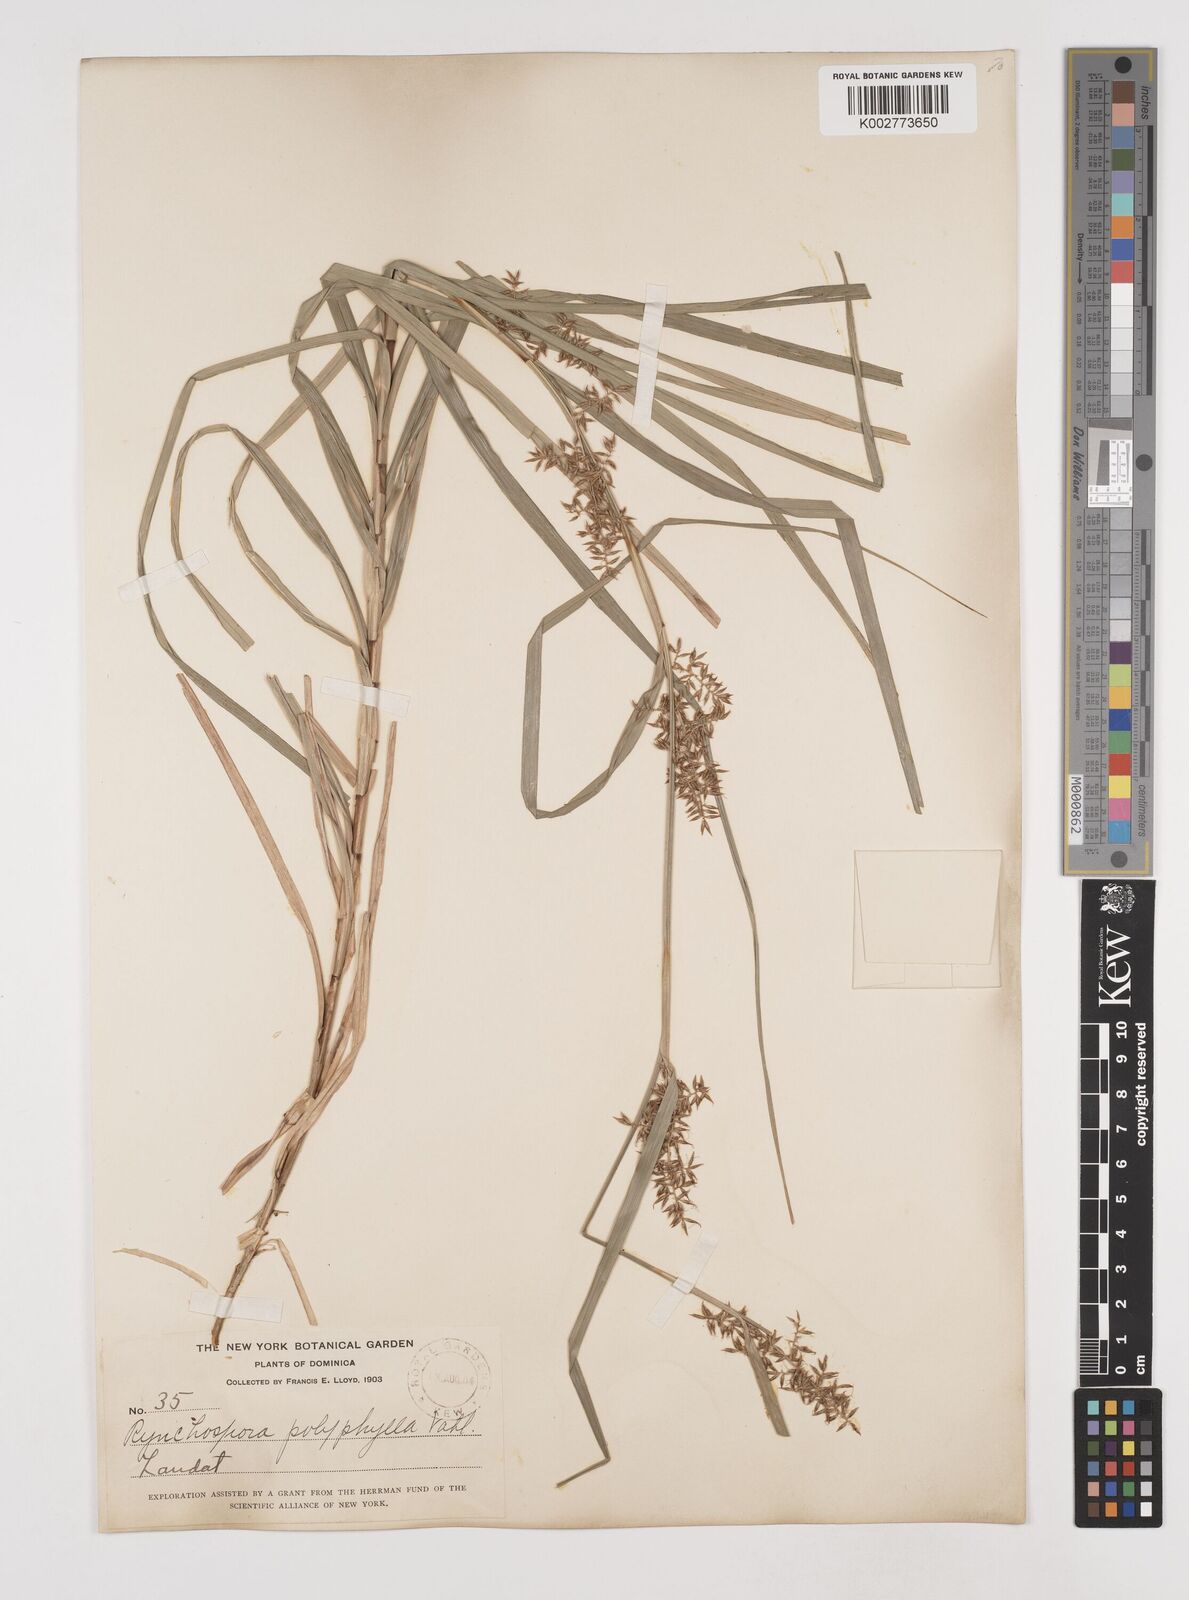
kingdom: Plantae
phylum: Tracheophyta
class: Liliopsida
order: Poales
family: Cyperaceae
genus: Rhynchospora
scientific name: Rhynchospora polyphylla
